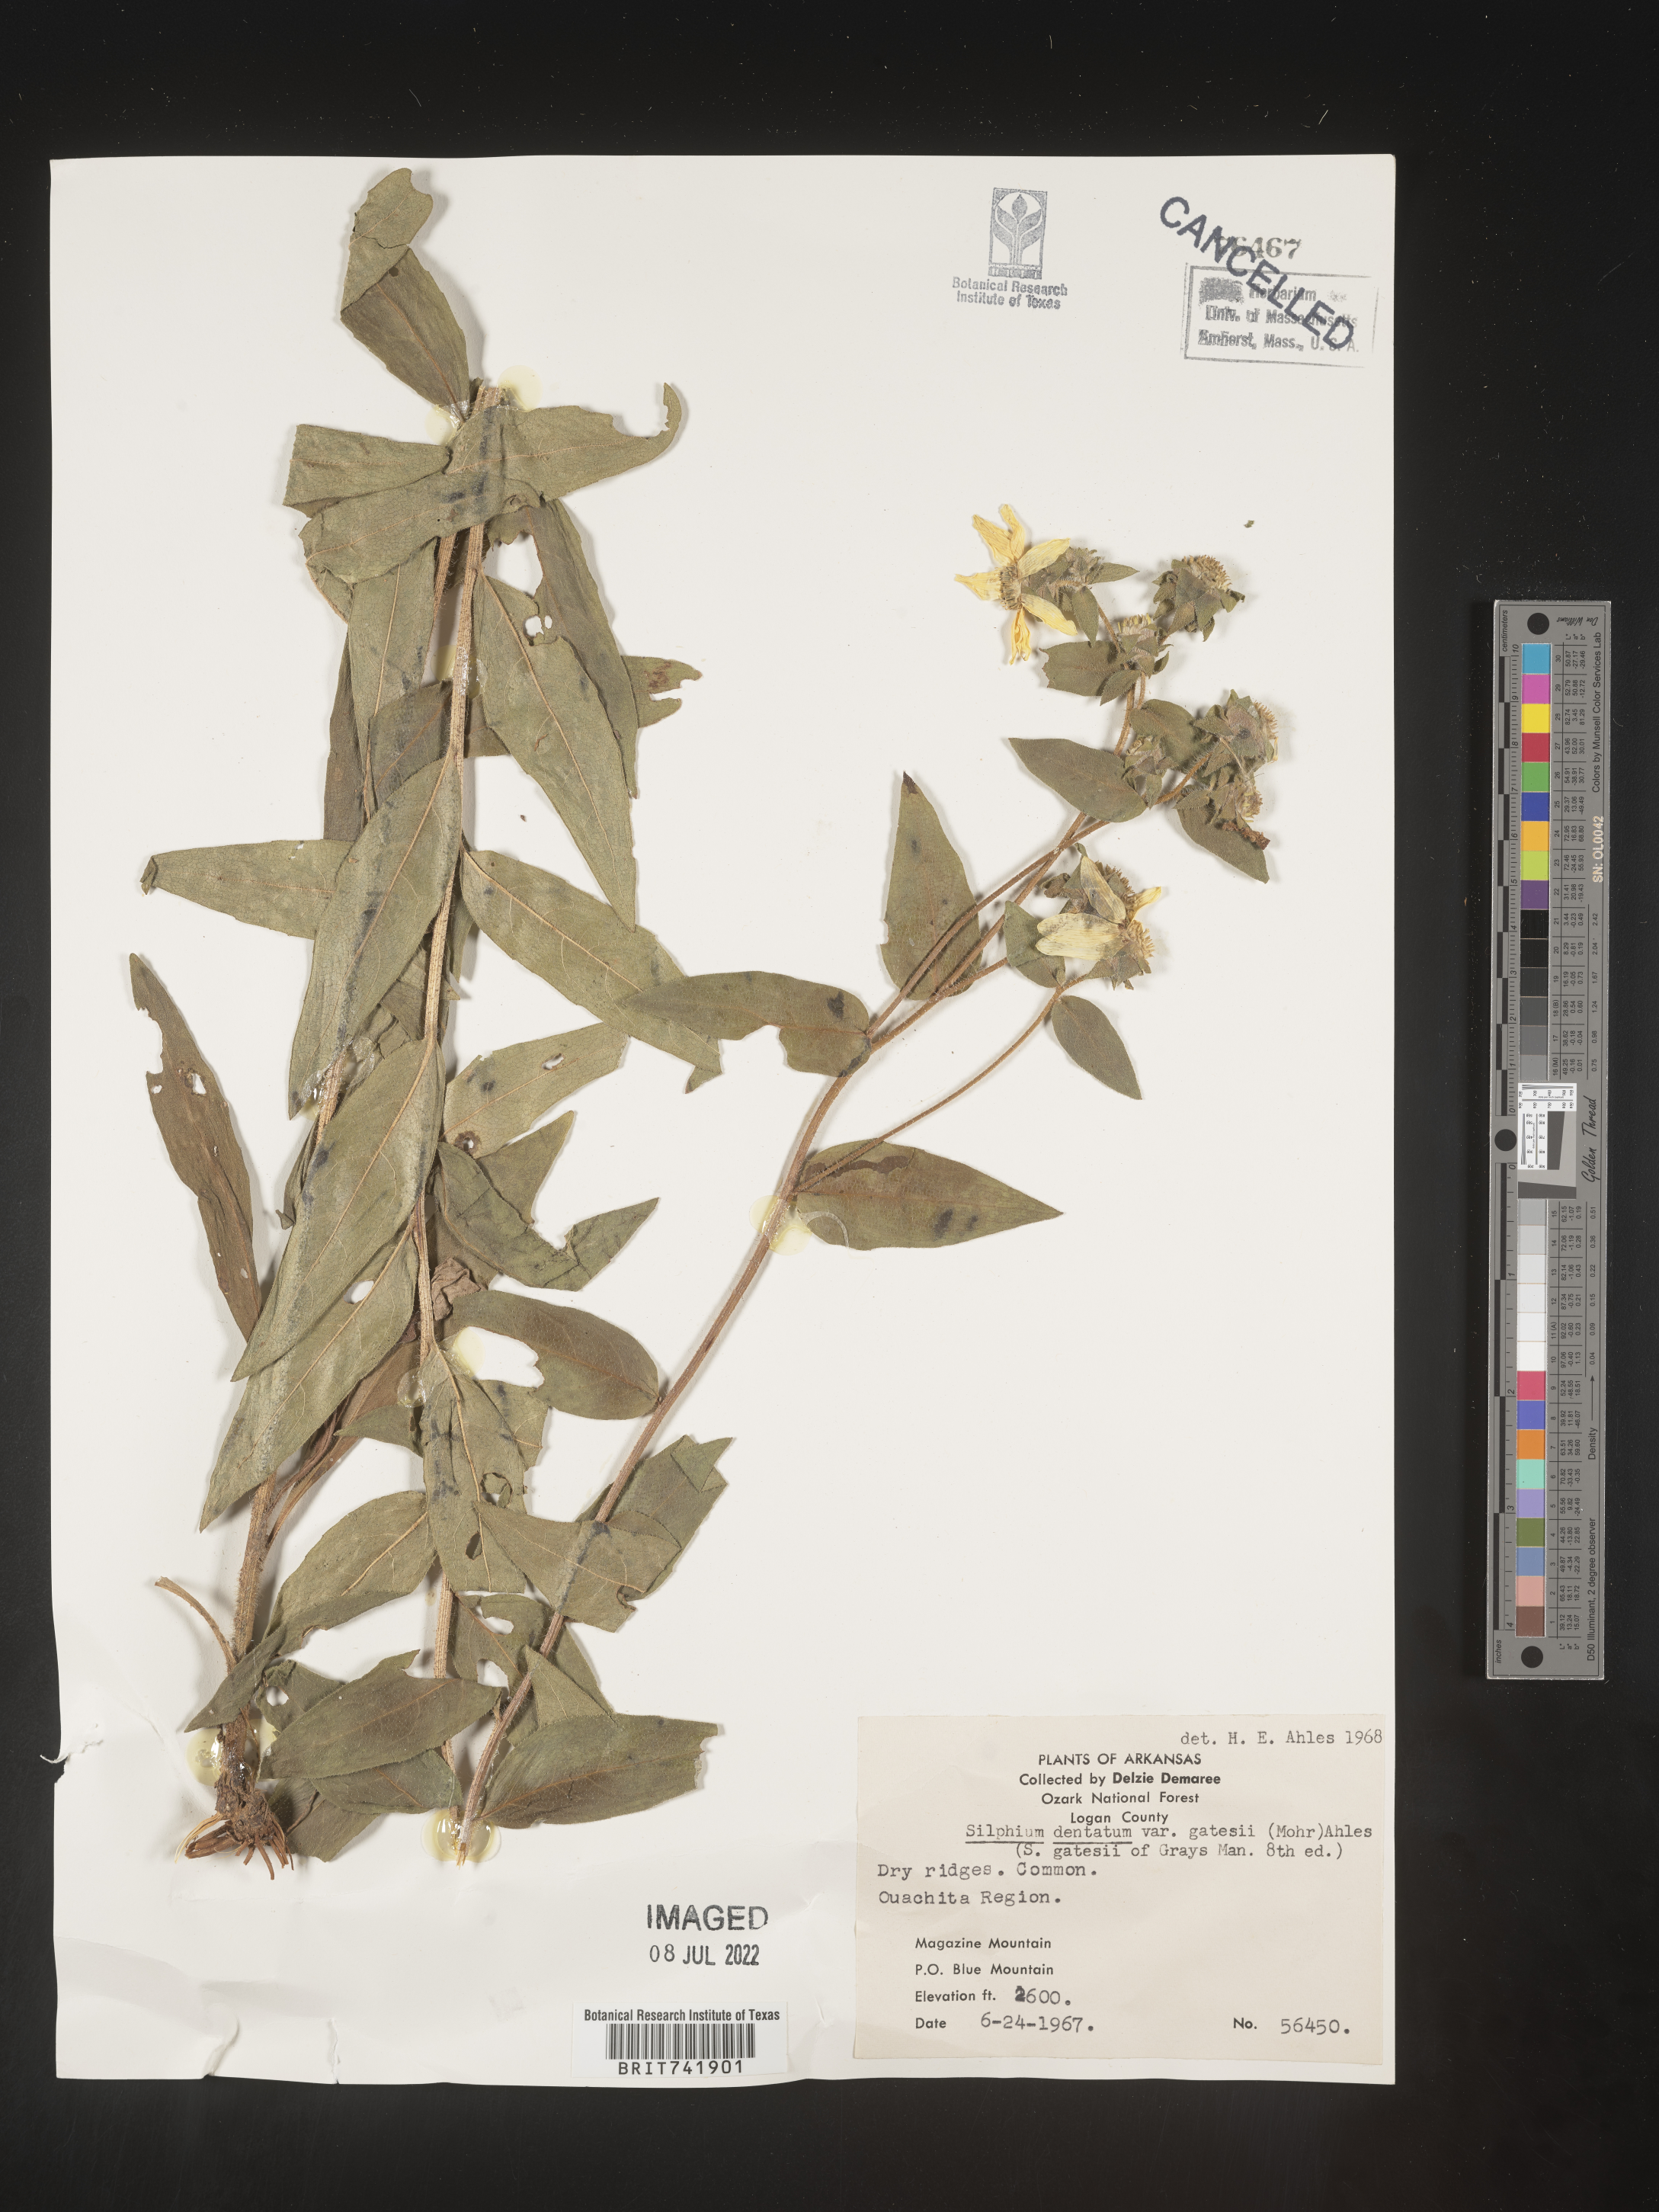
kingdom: Plantae
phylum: Tracheophyta
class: Magnoliopsida
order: Asterales
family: Asteraceae
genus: Silphium
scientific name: Silphium asperrimum
